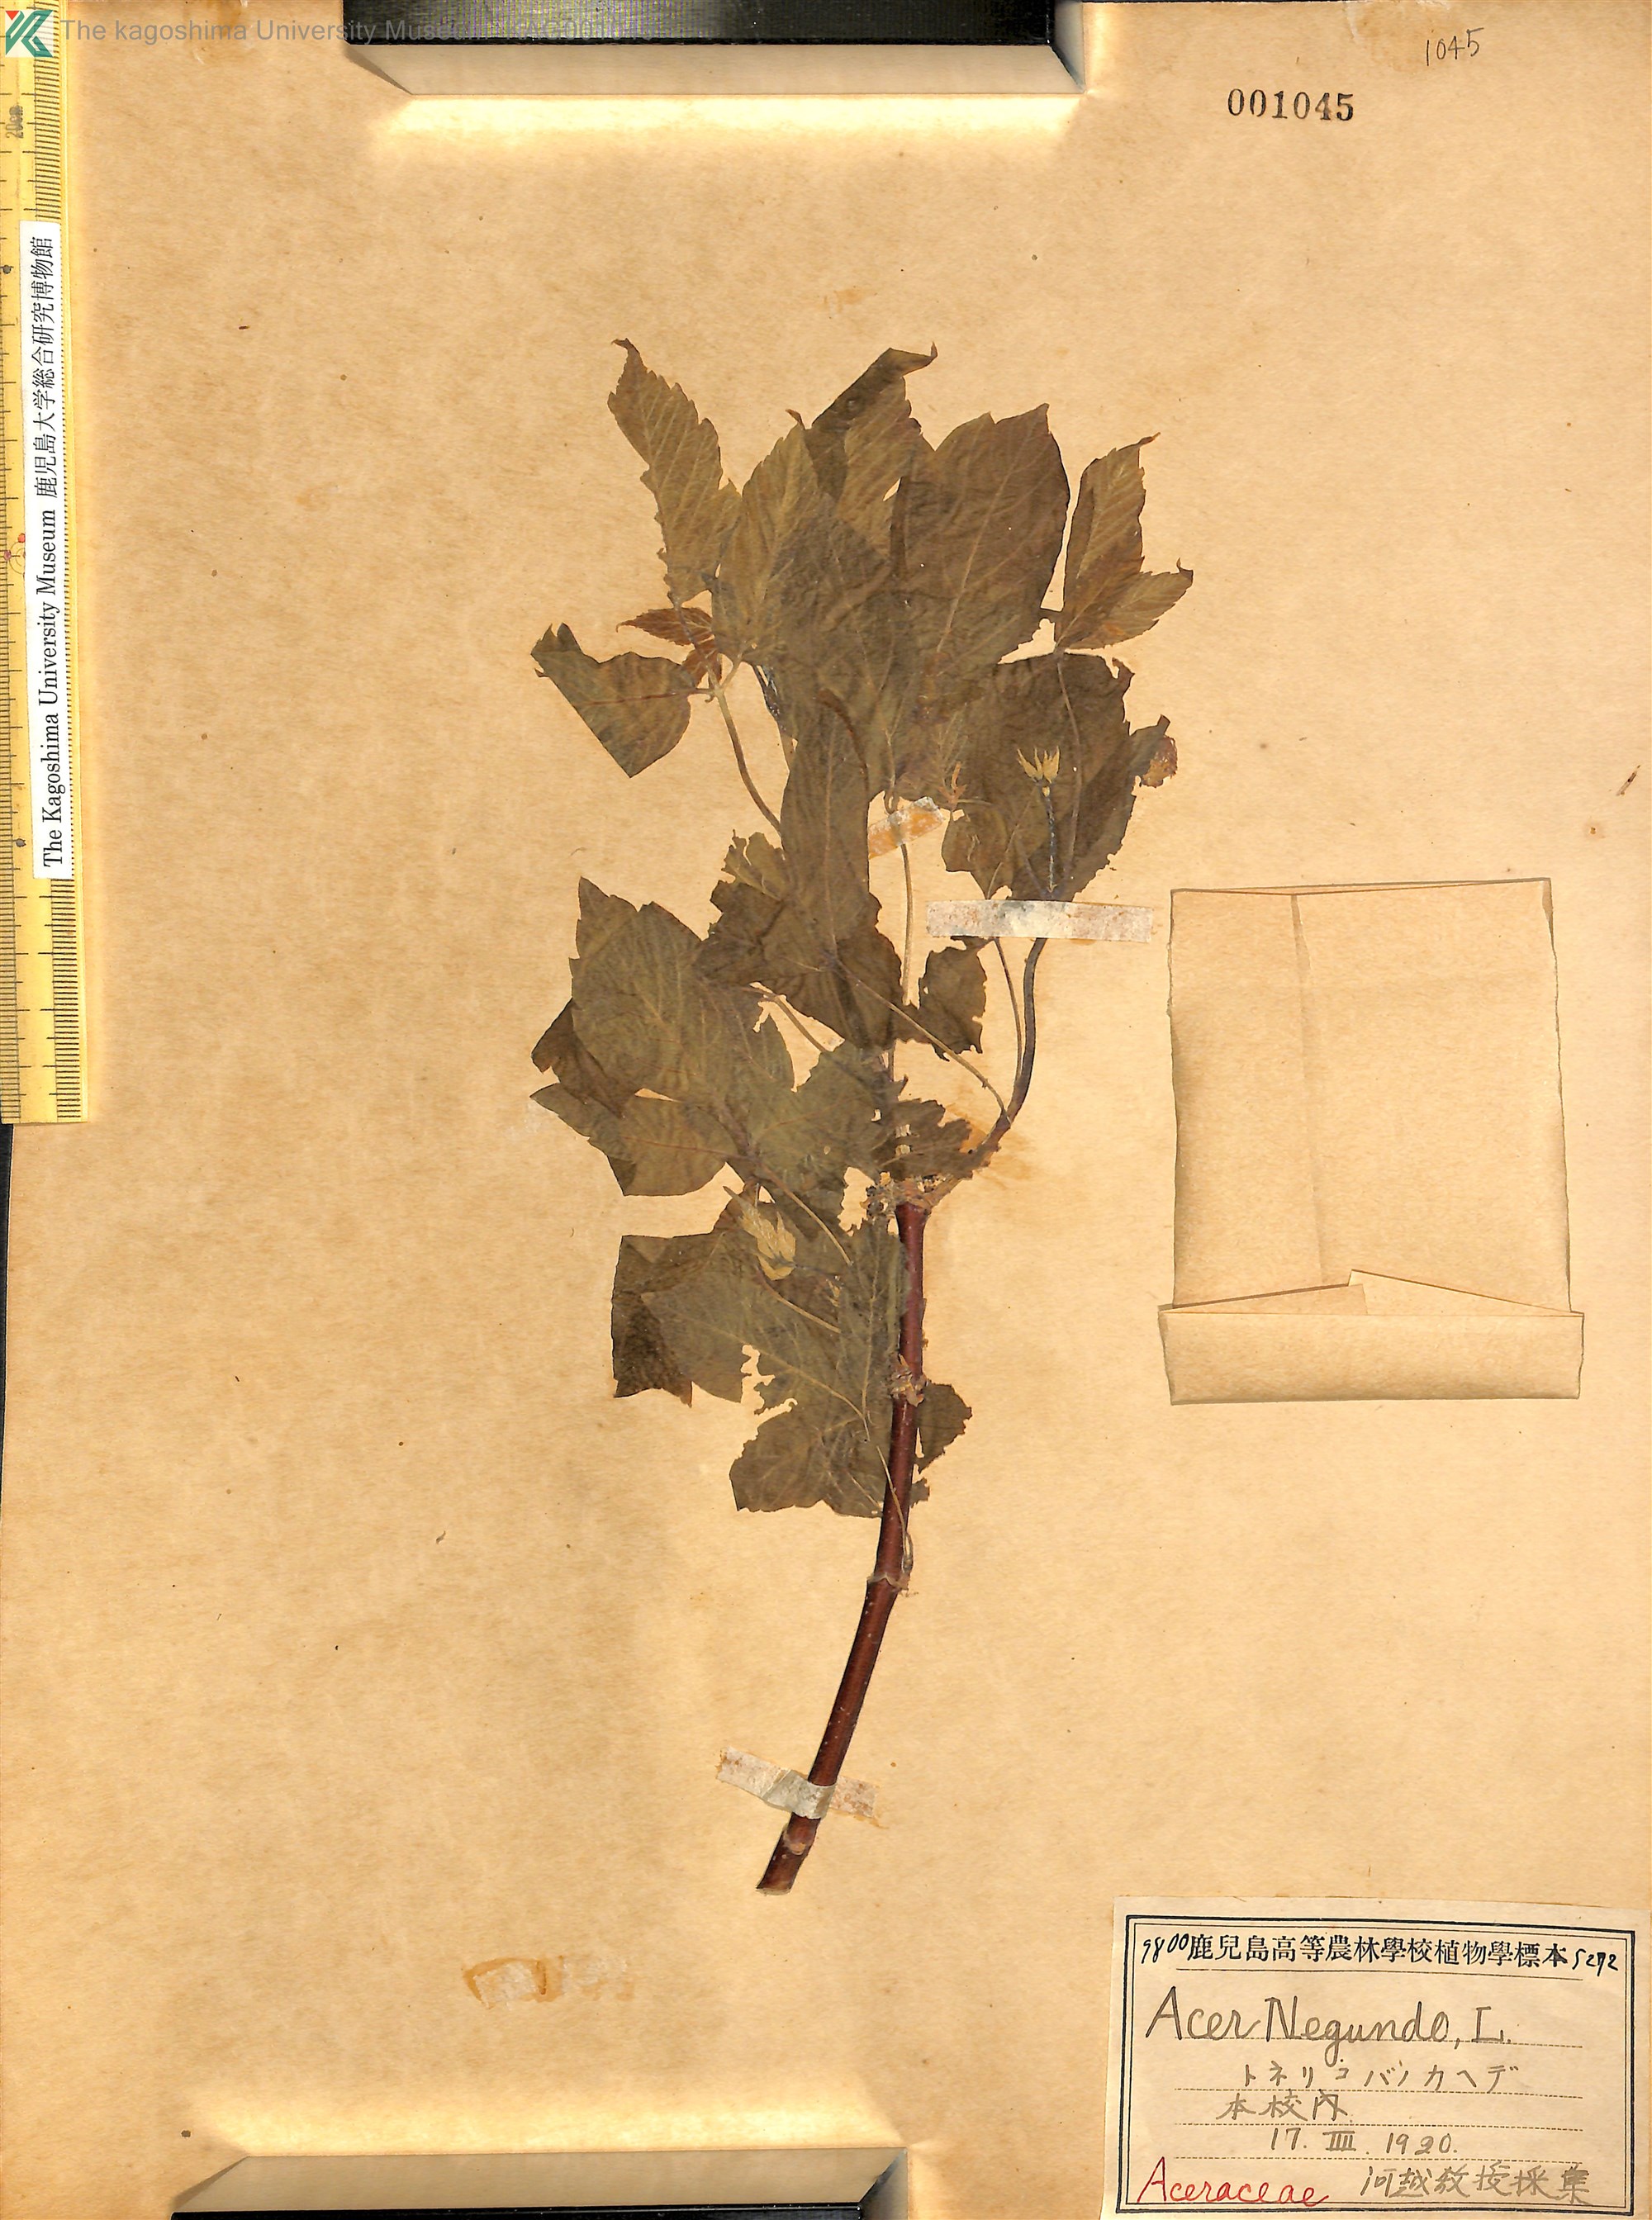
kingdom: Plantae
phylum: Tracheophyta
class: Magnoliopsida
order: Sapindales
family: Sapindaceae
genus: Acer
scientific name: Acer negundo
